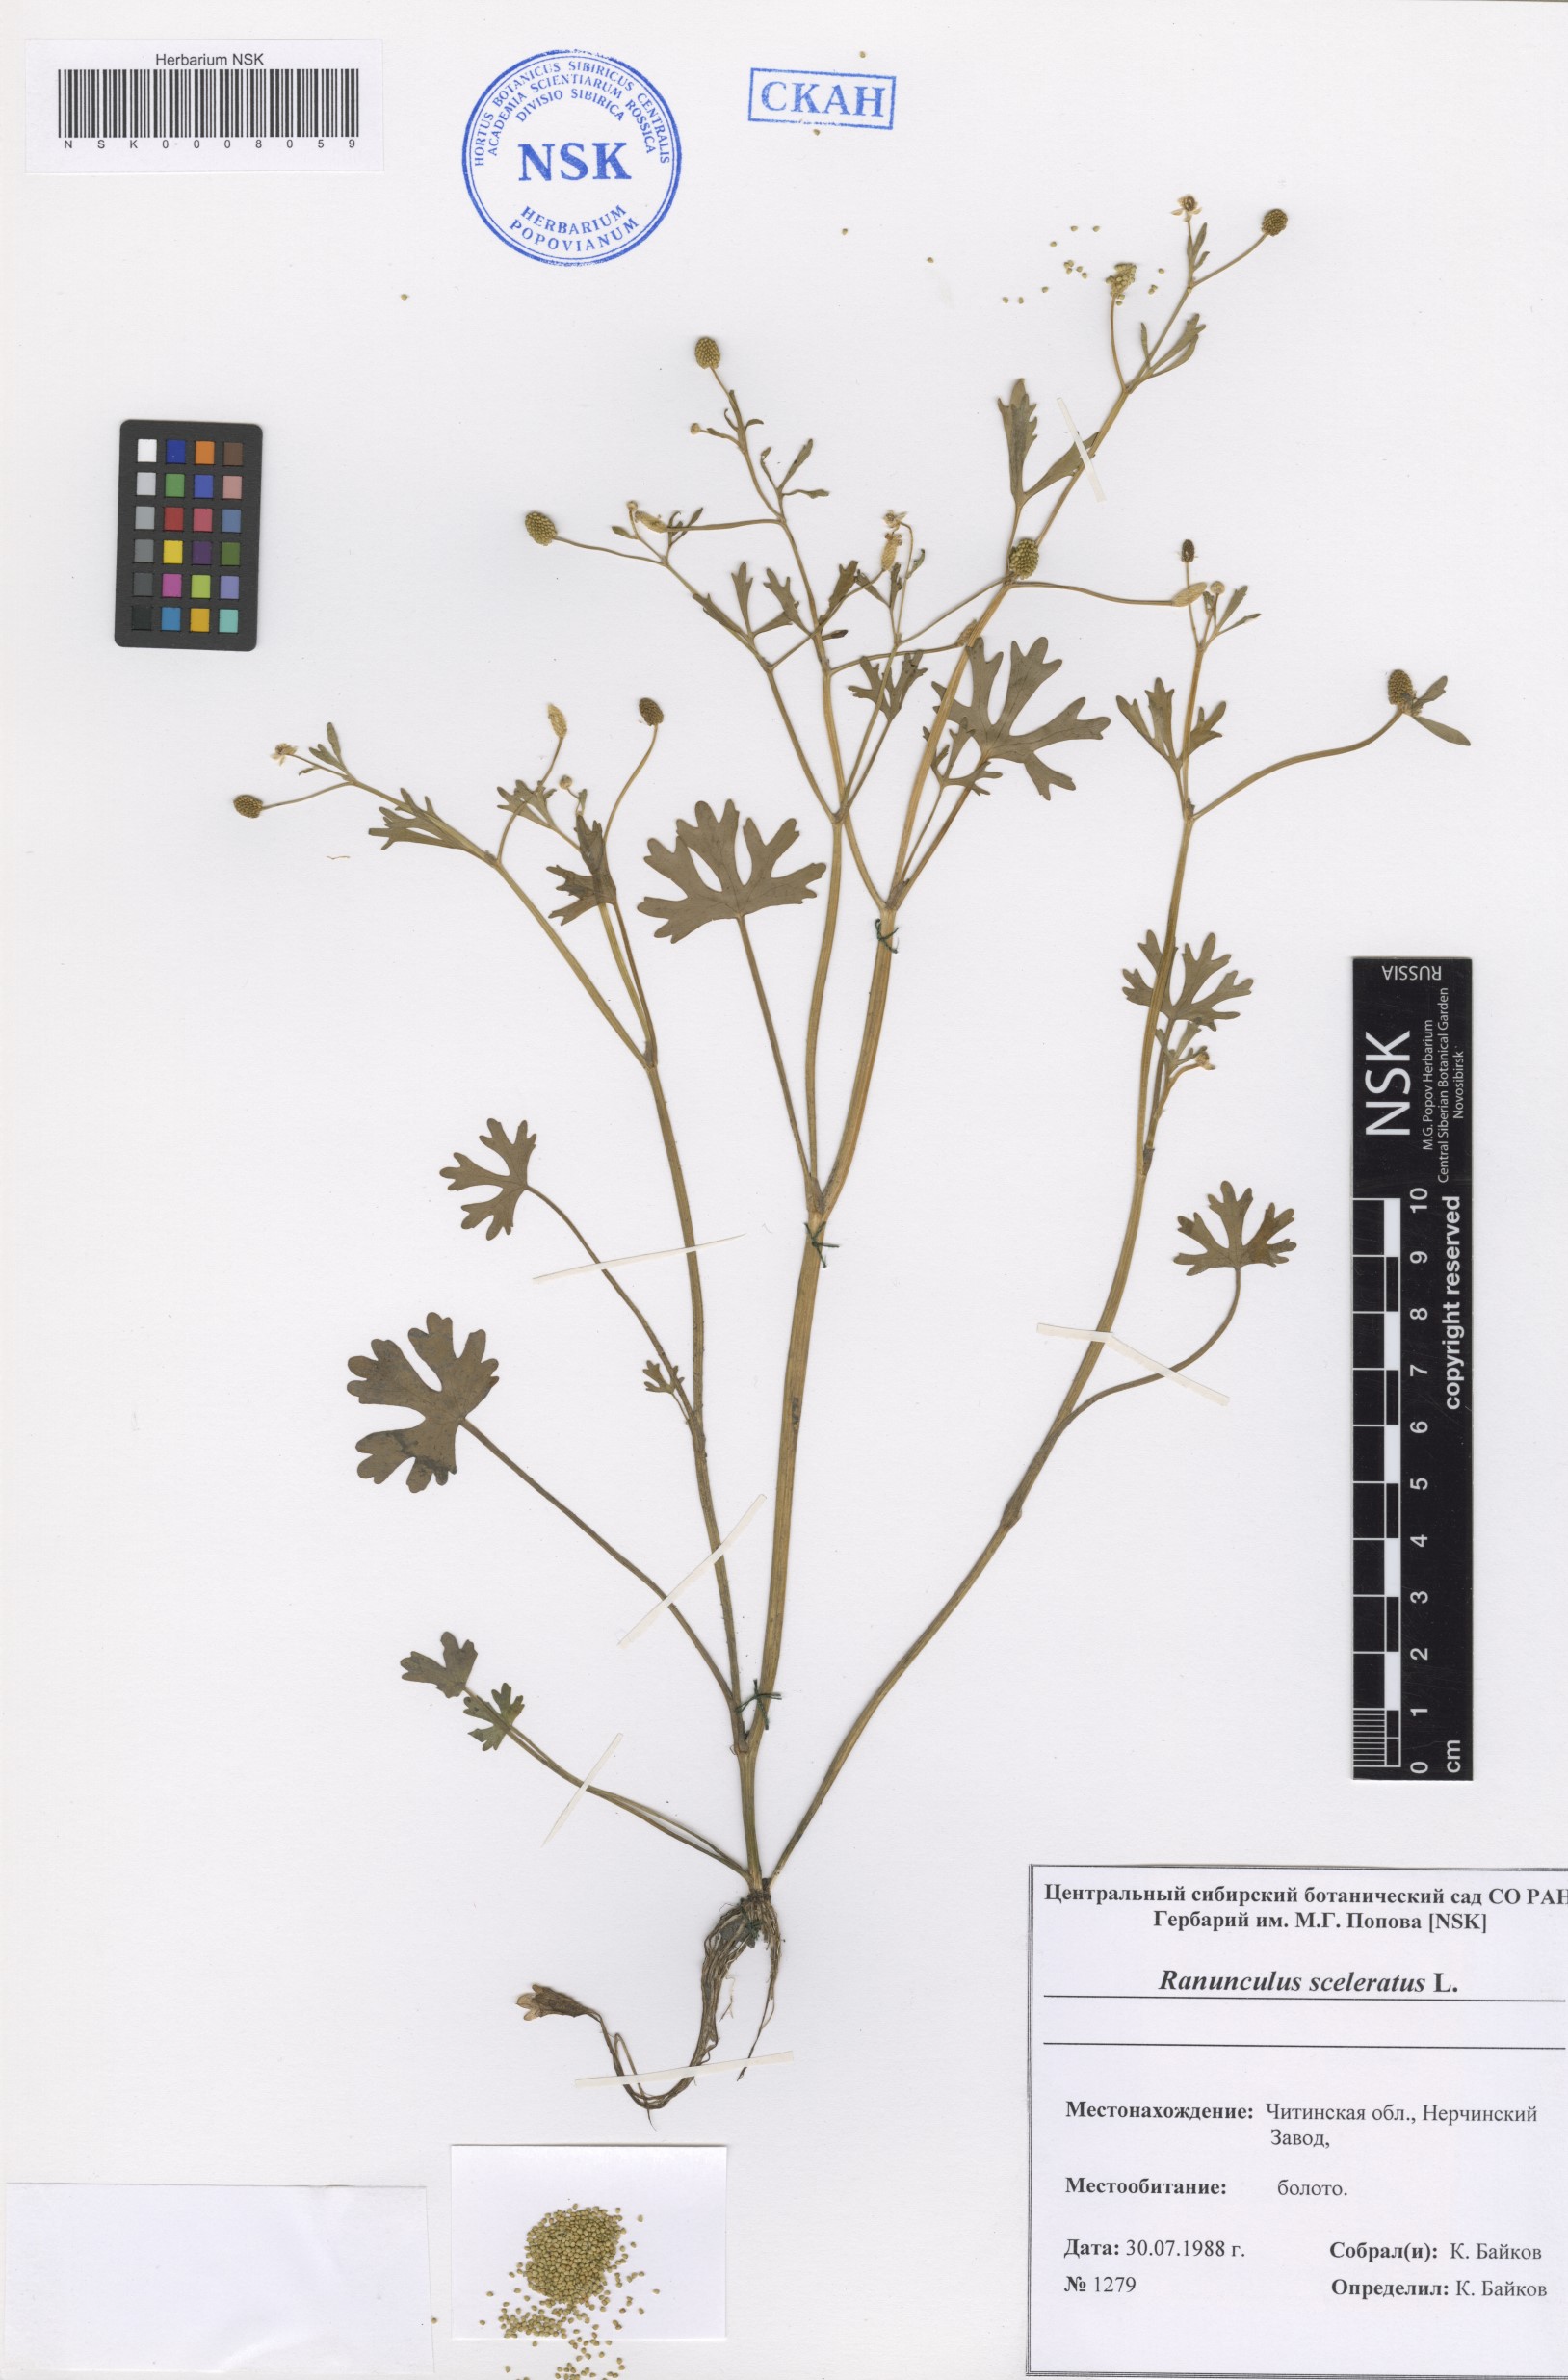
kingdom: Plantae
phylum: Tracheophyta
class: Magnoliopsida
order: Ranunculales
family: Ranunculaceae
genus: Ranunculus
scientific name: Ranunculus sceleratus
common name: Celery-leaved buttercup
